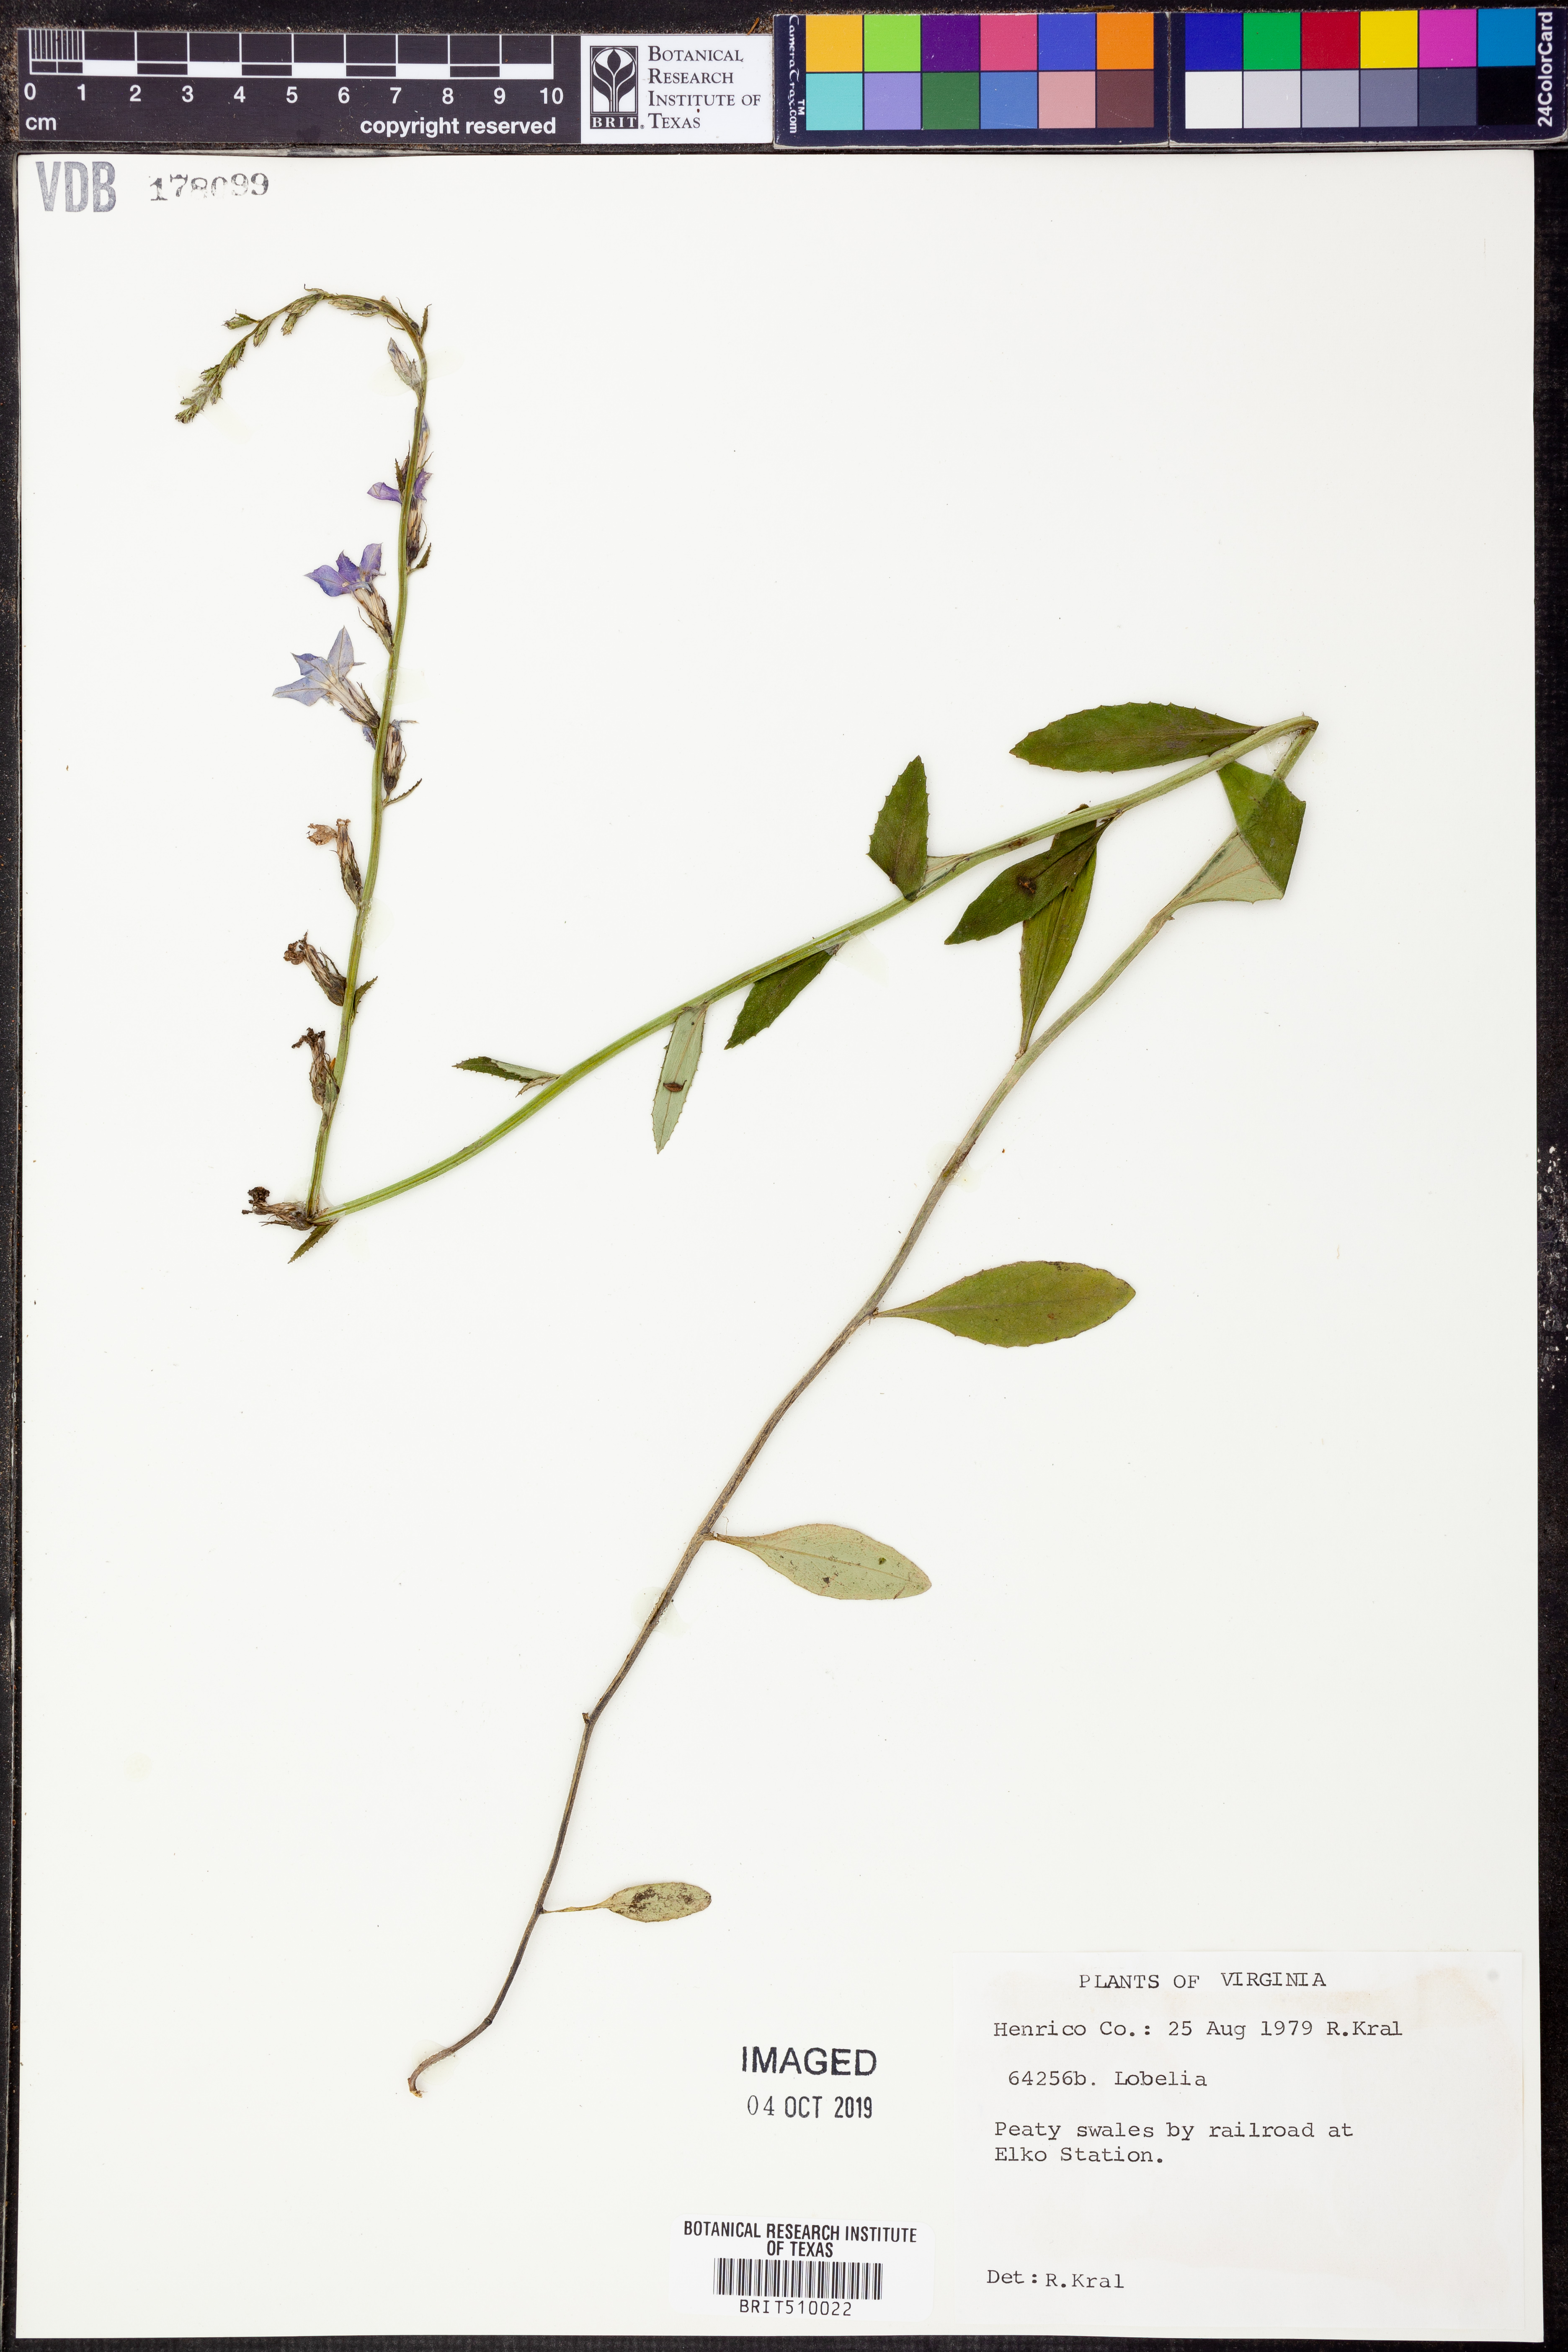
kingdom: Plantae
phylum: Tracheophyta
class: Magnoliopsida
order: Asterales
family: Campanulaceae
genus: Lobelia
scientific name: Lobelia
